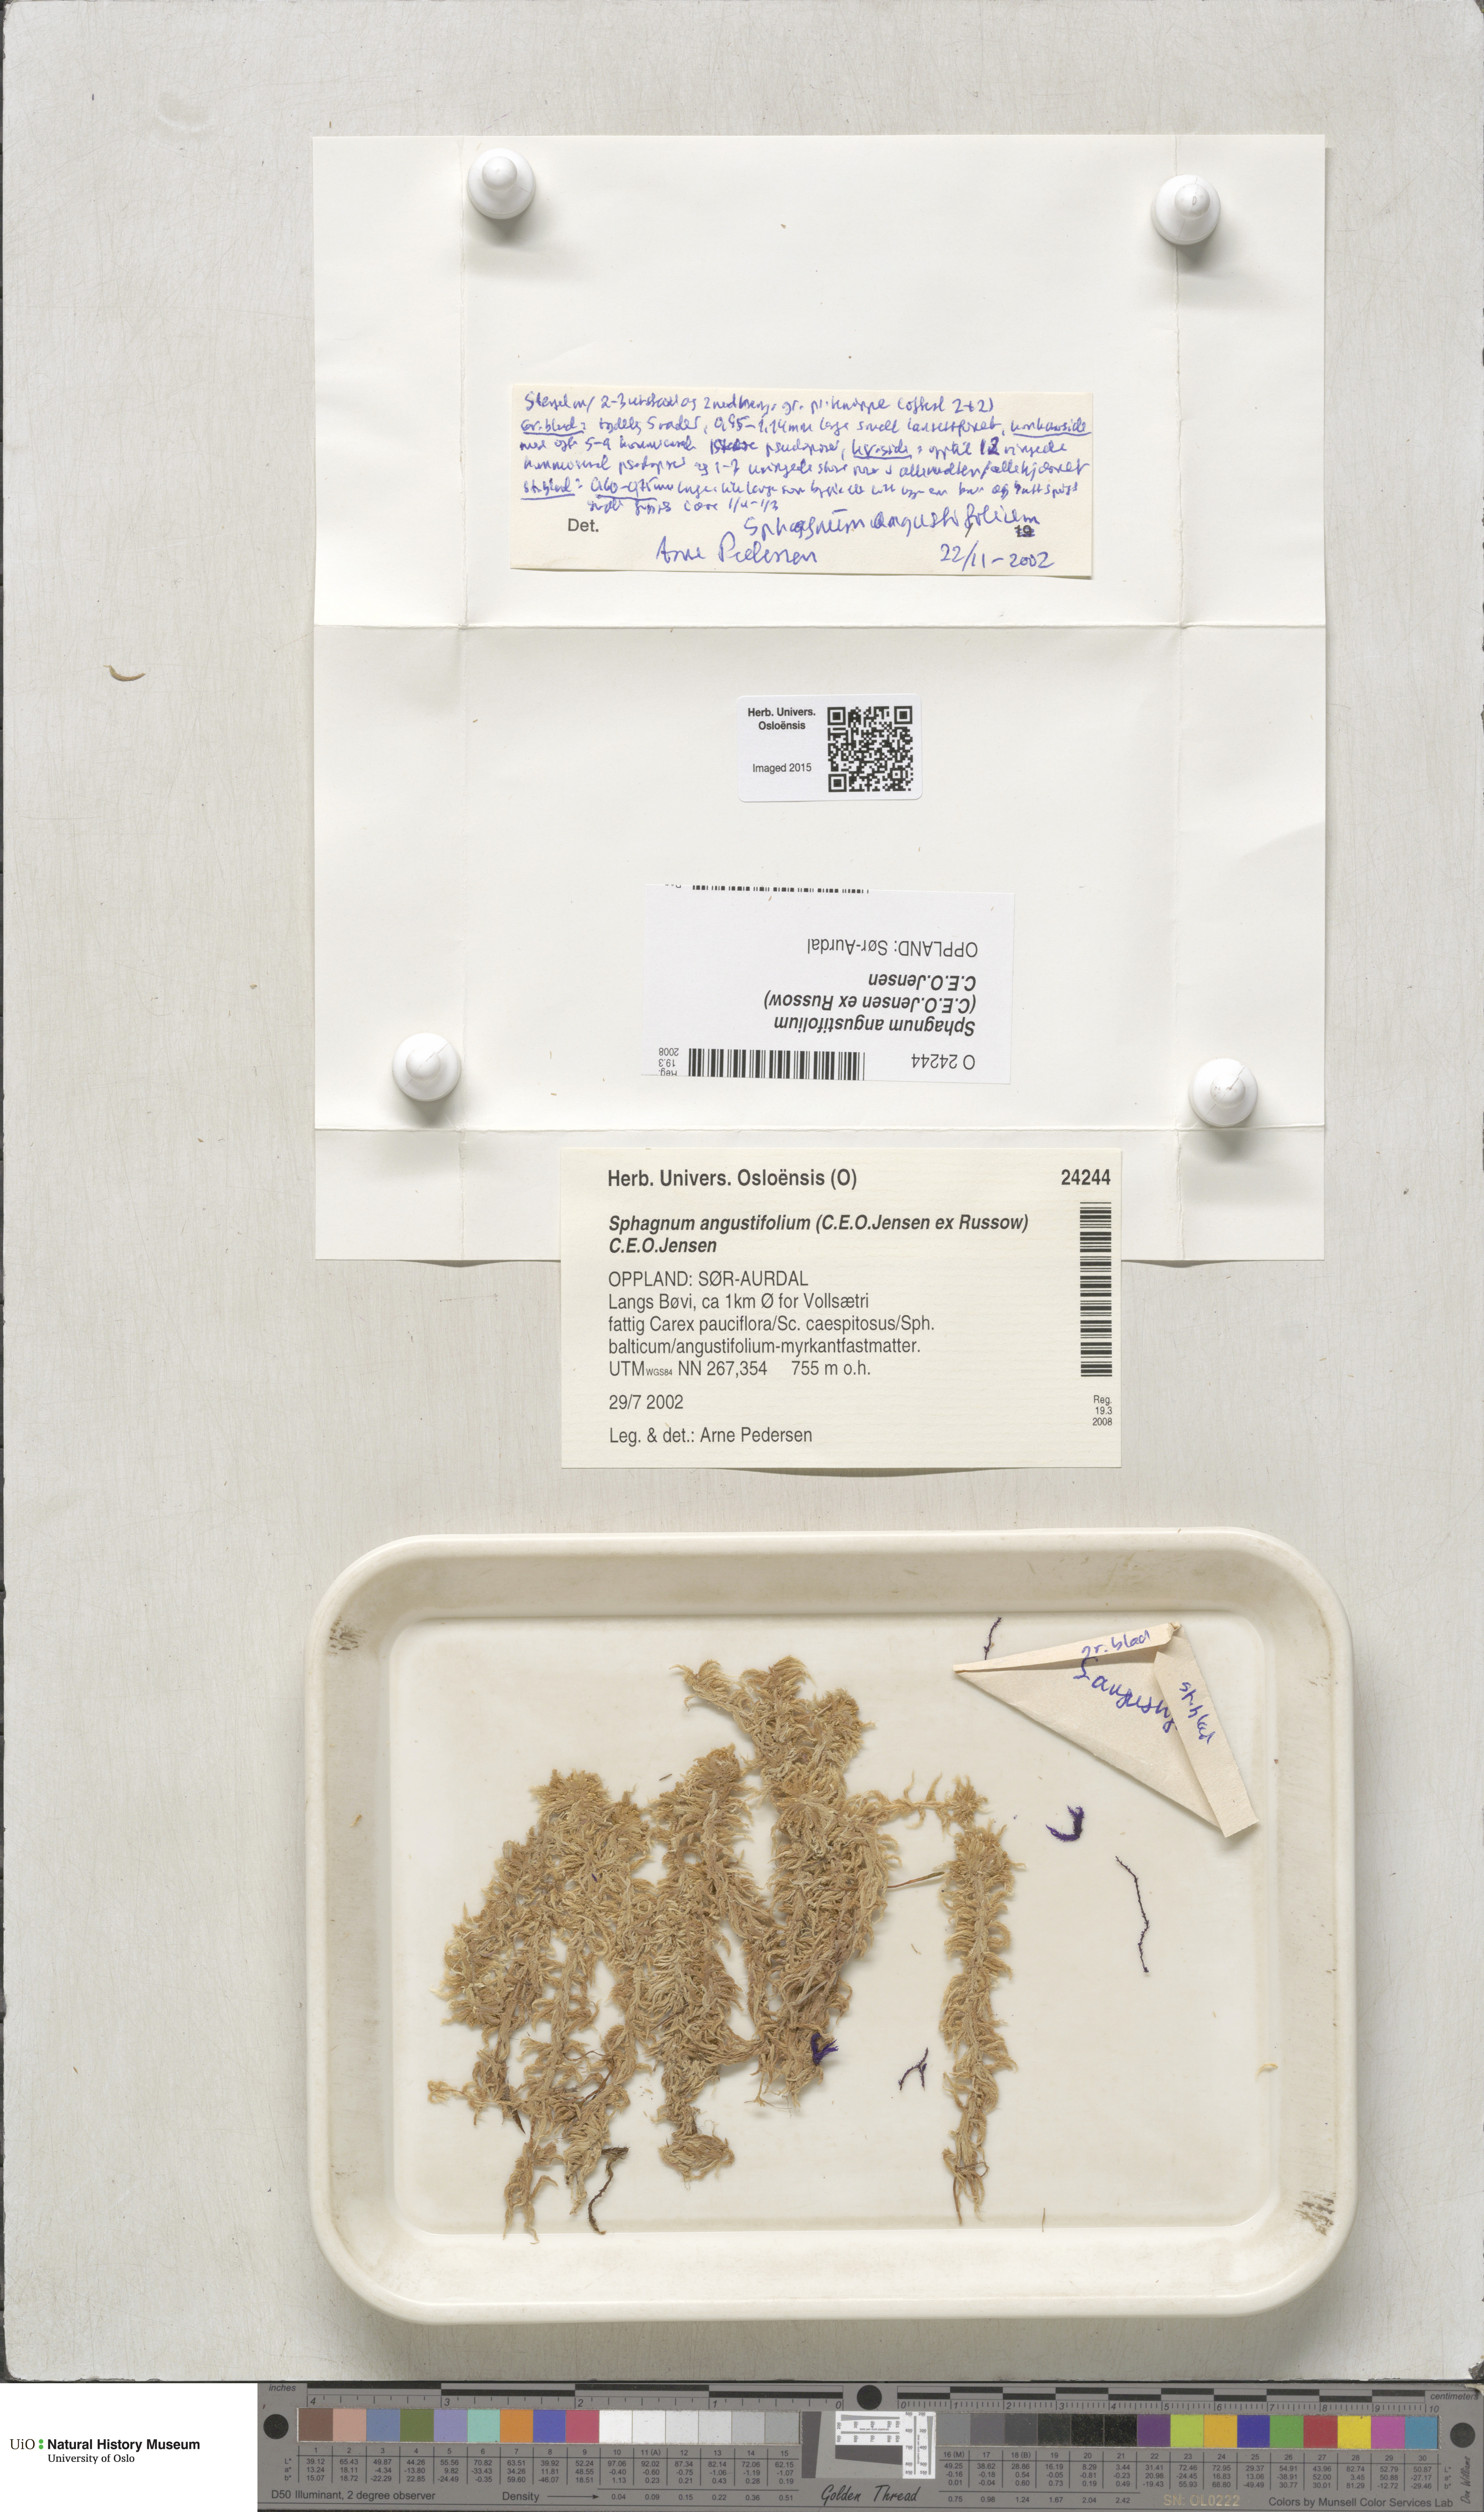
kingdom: Plantae
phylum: Bryophyta
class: Sphagnopsida
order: Sphagnales
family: Sphagnaceae
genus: Sphagnum
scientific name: Sphagnum angustifolium
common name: Narrow-leaved peat moss
